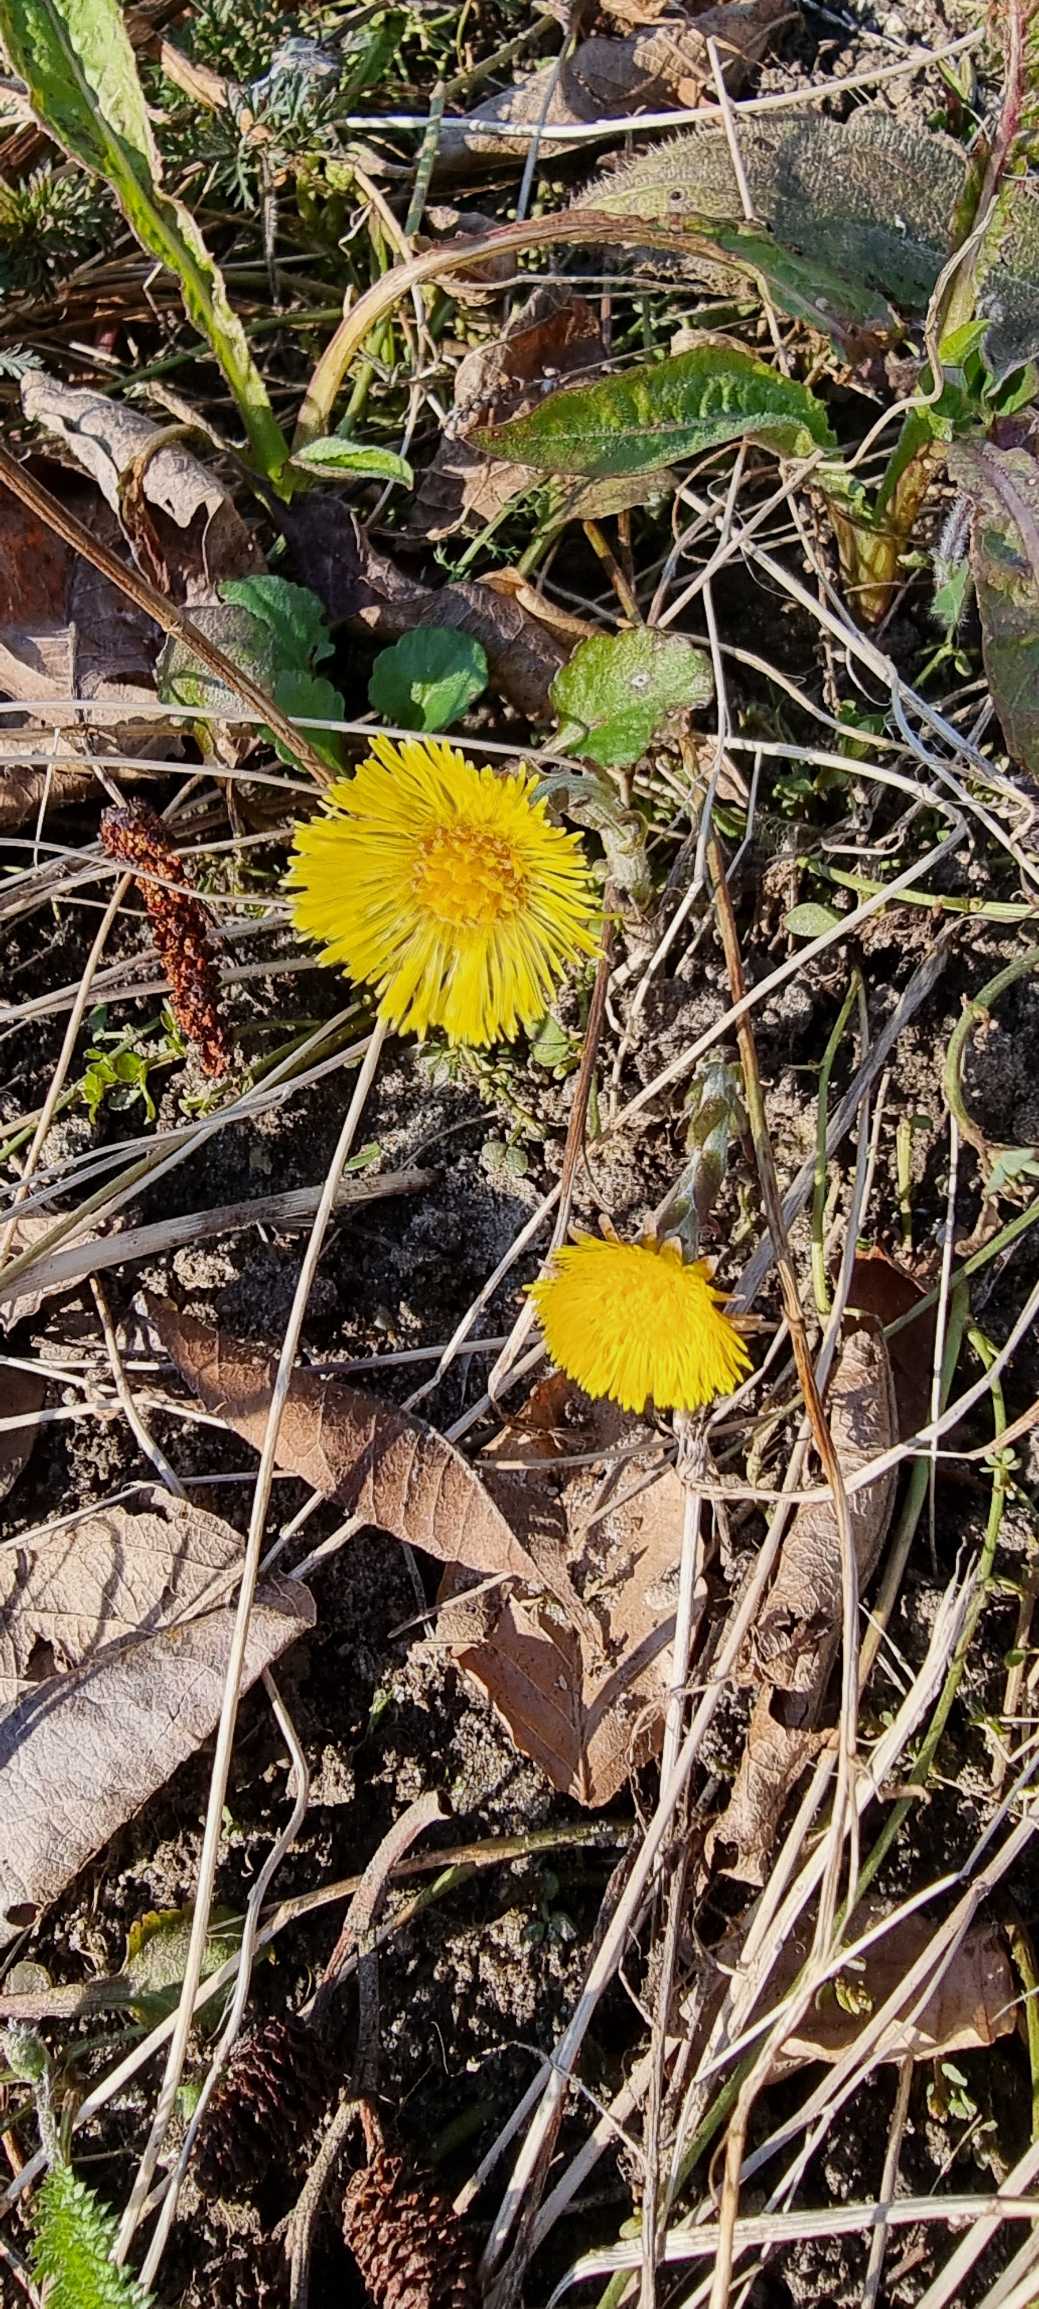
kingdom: Plantae
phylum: Tracheophyta
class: Magnoliopsida
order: Asterales
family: Asteraceae
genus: Tussilago
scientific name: Tussilago farfara
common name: Følfod
